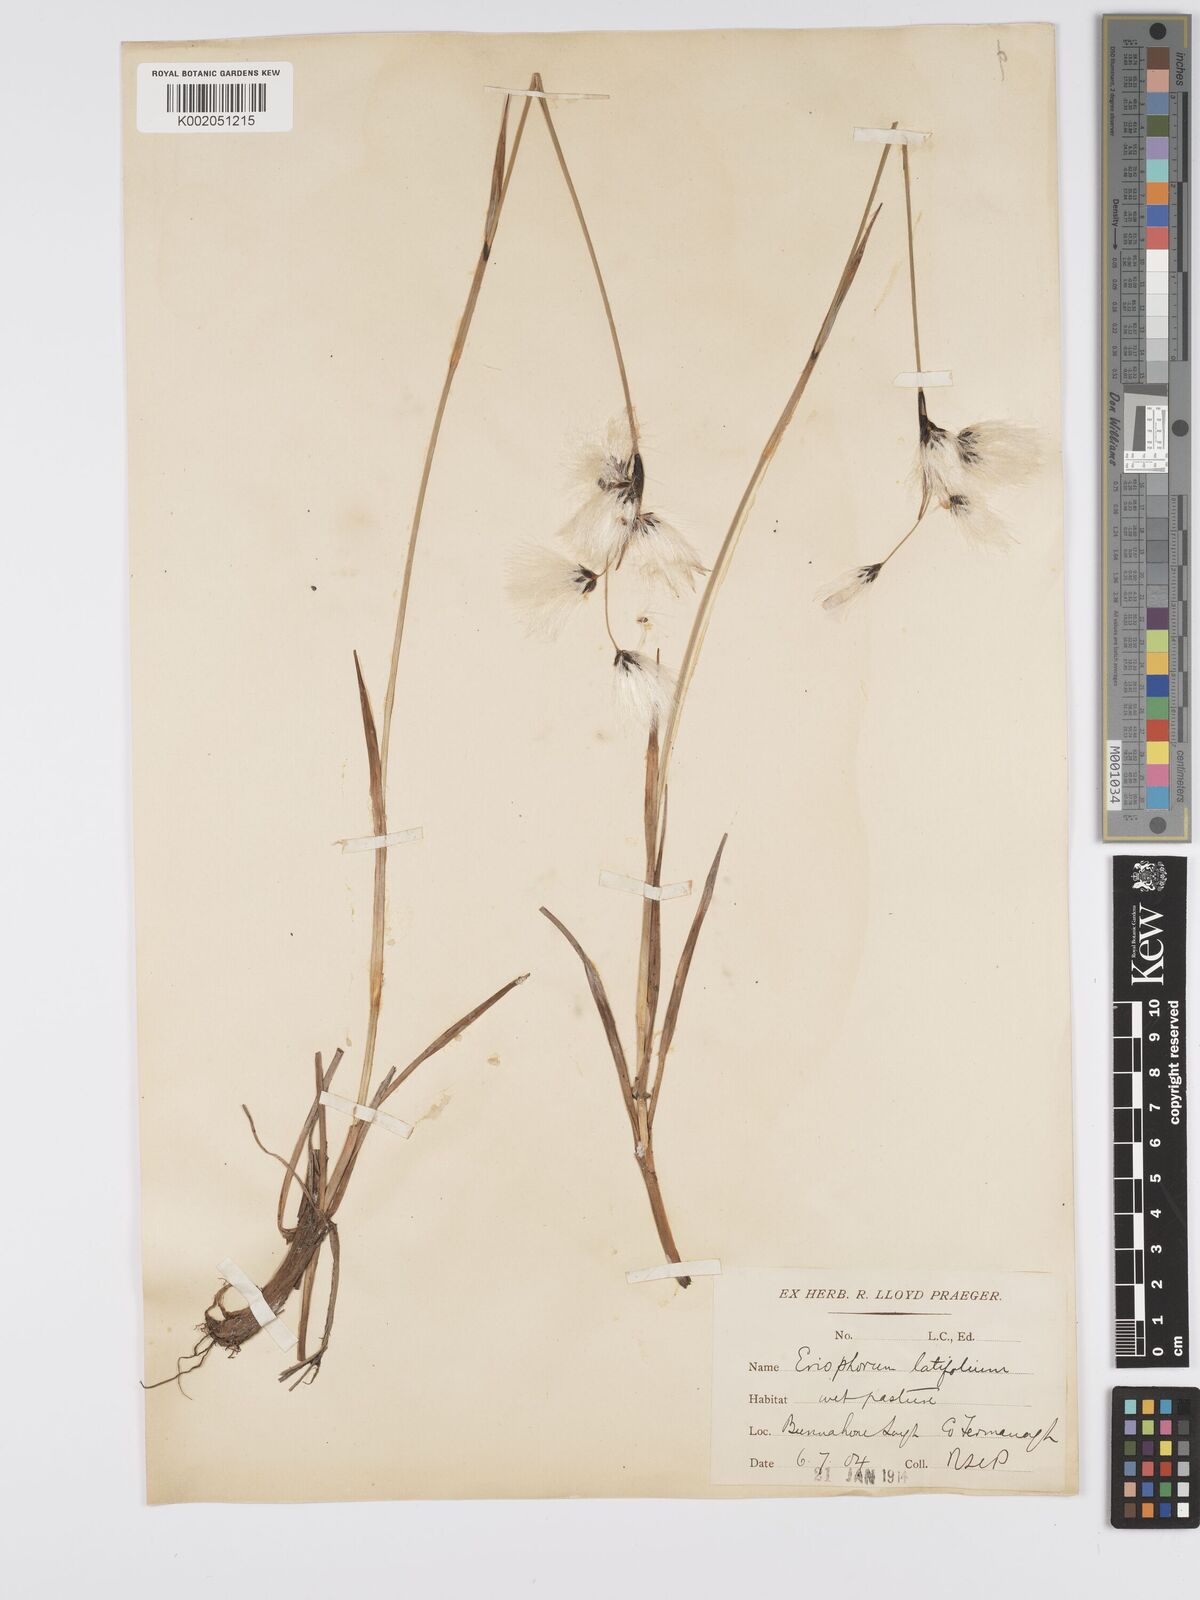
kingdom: Plantae
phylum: Tracheophyta
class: Liliopsida
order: Poales
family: Cyperaceae
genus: Eriophorum
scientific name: Eriophorum latifolium
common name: Broad-leaved cottongrass
